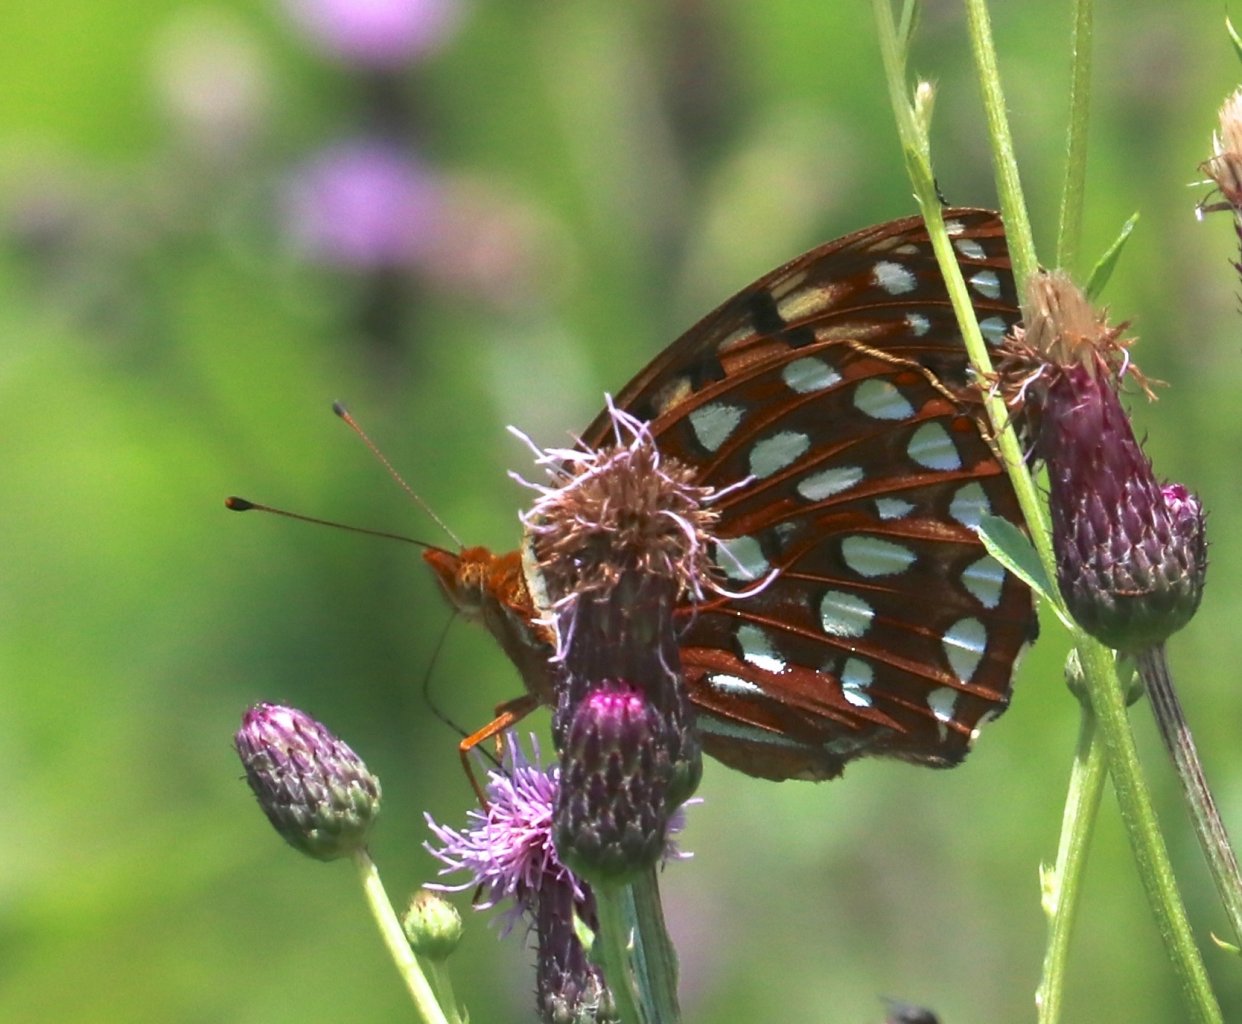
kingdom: Animalia
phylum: Arthropoda
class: Insecta
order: Lepidoptera
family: Nymphalidae
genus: Speyeria
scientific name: Speyeria aphrodite
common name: Aphrodite Fritillary
